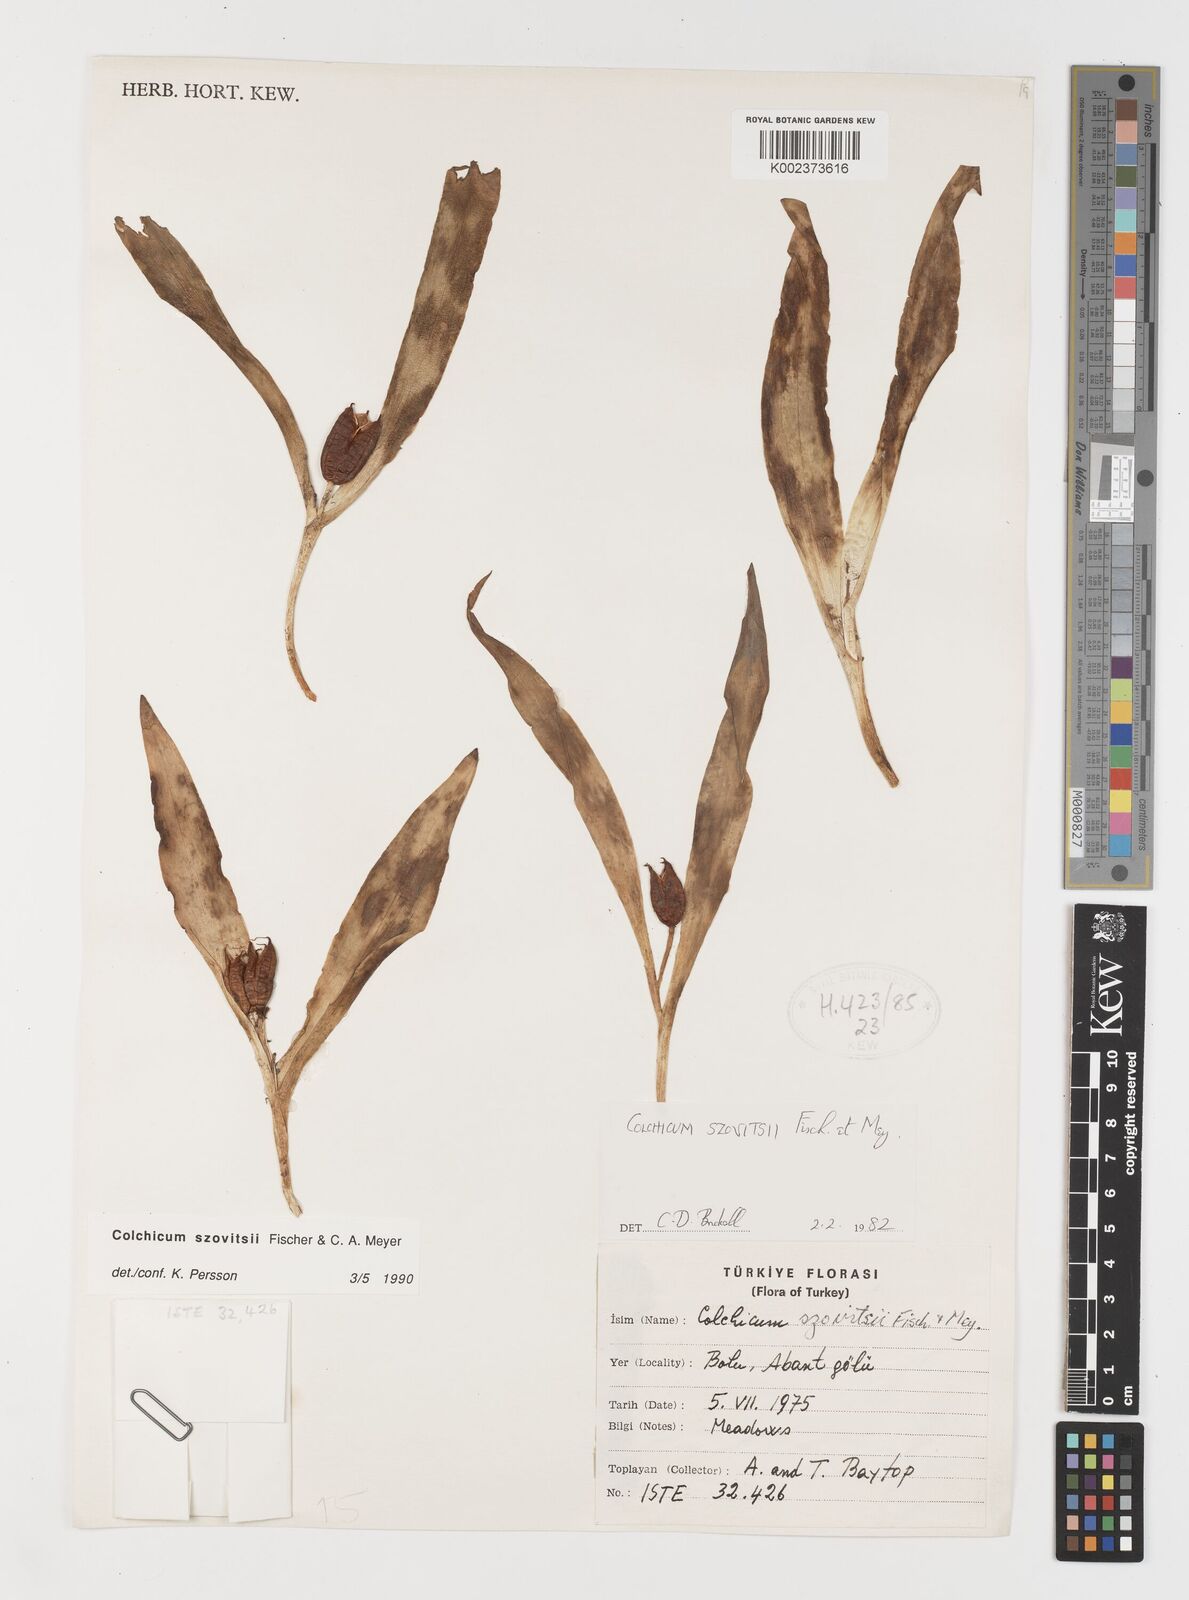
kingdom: Plantae
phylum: Tracheophyta
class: Liliopsida
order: Liliales
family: Colchicaceae
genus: Colchicum
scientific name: Colchicum szovitsii
